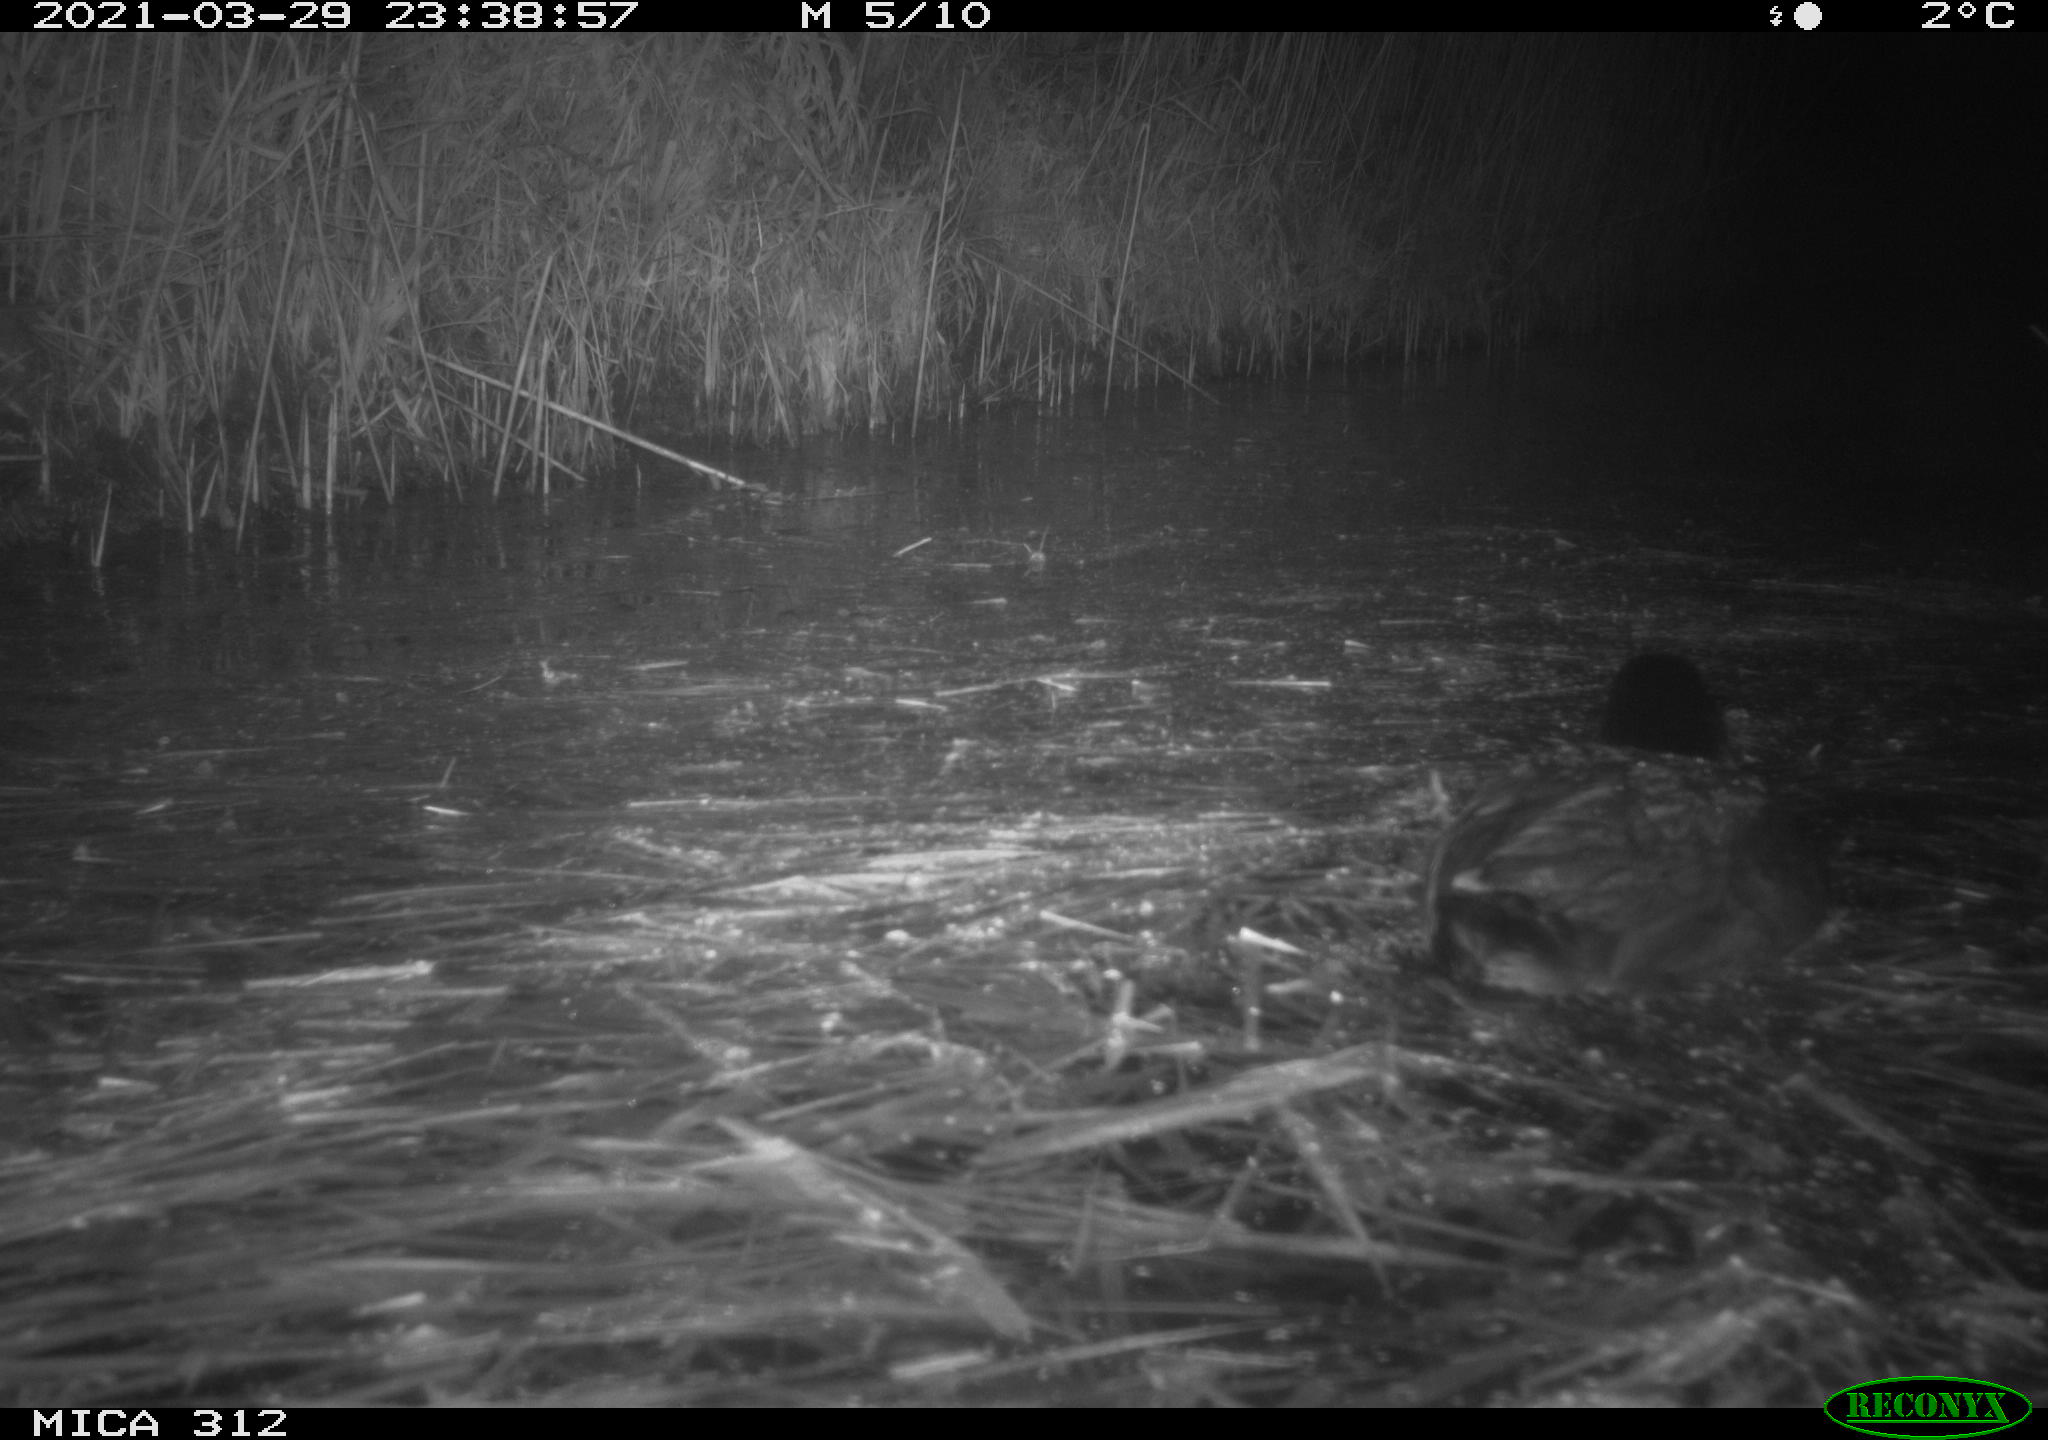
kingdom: Animalia
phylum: Chordata
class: Aves
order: Gruiformes
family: Rallidae
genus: Fulica
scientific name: Fulica atra
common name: Eurasian coot
